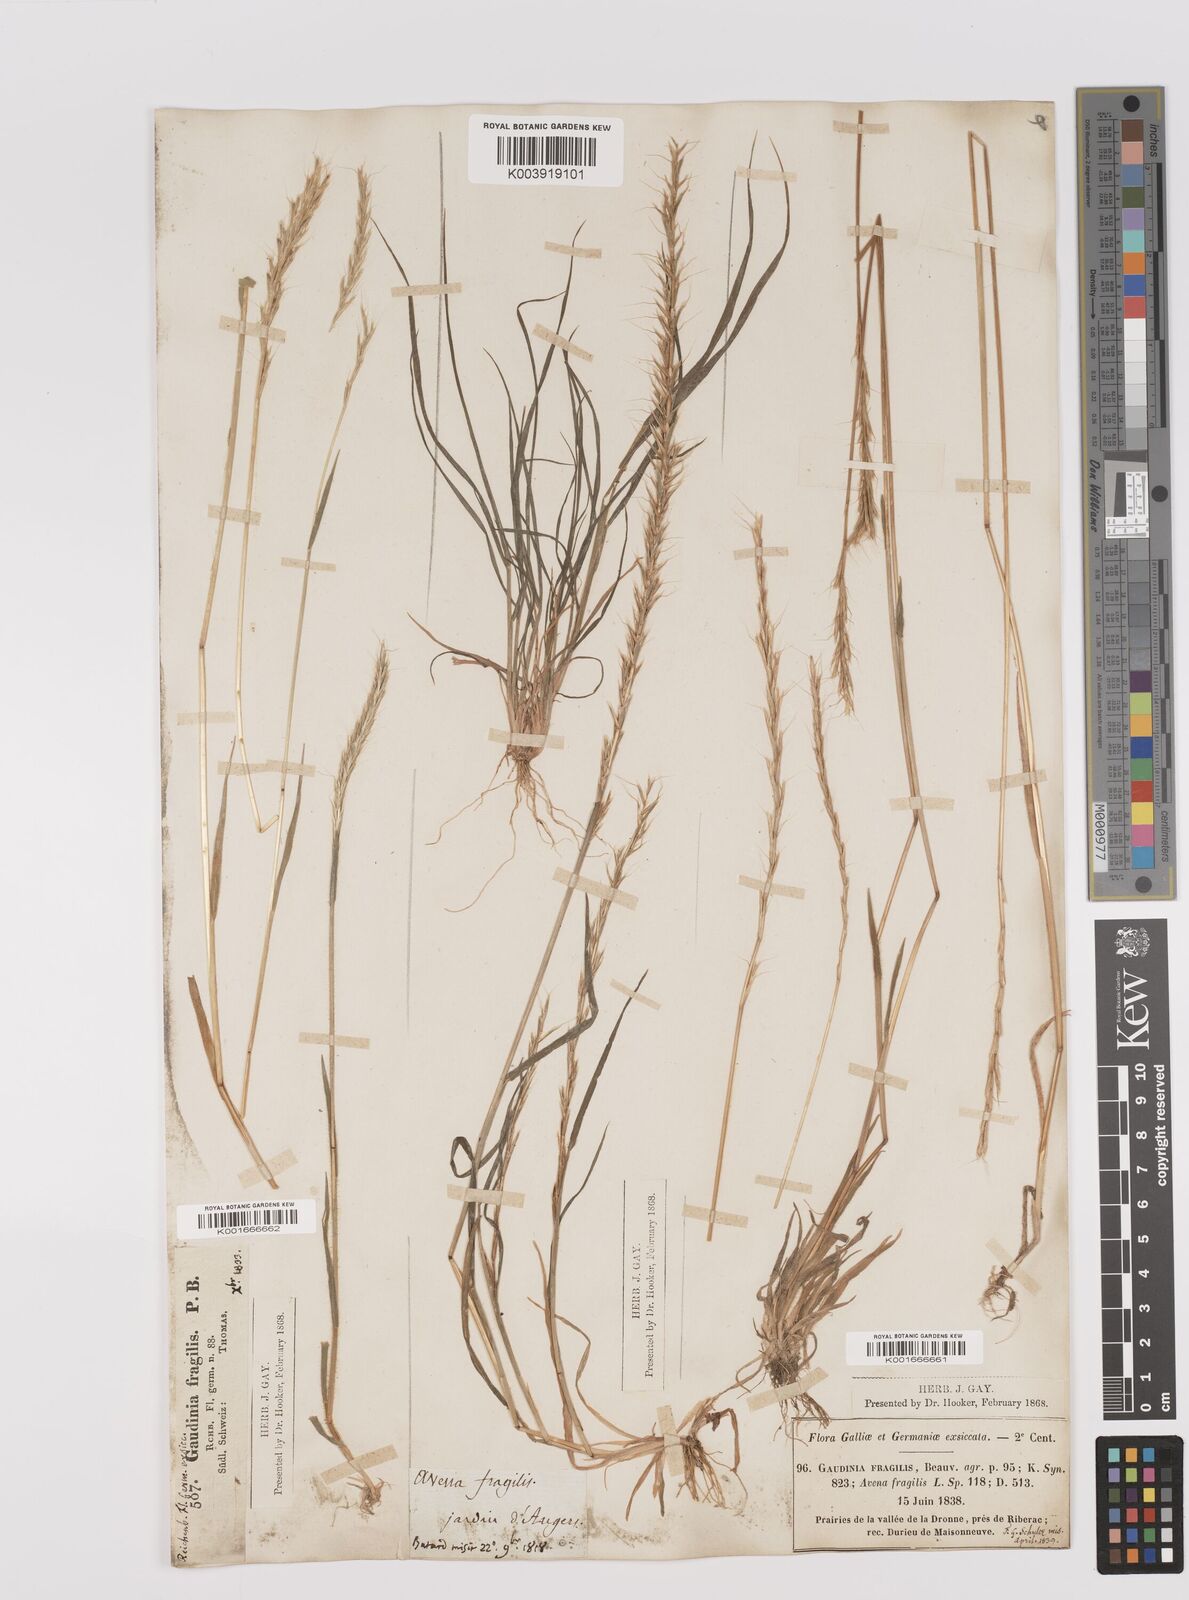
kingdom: Plantae
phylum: Tracheophyta
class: Liliopsida
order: Poales
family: Poaceae
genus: Gaudinia
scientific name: Gaudinia fragilis
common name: French oat-grass
